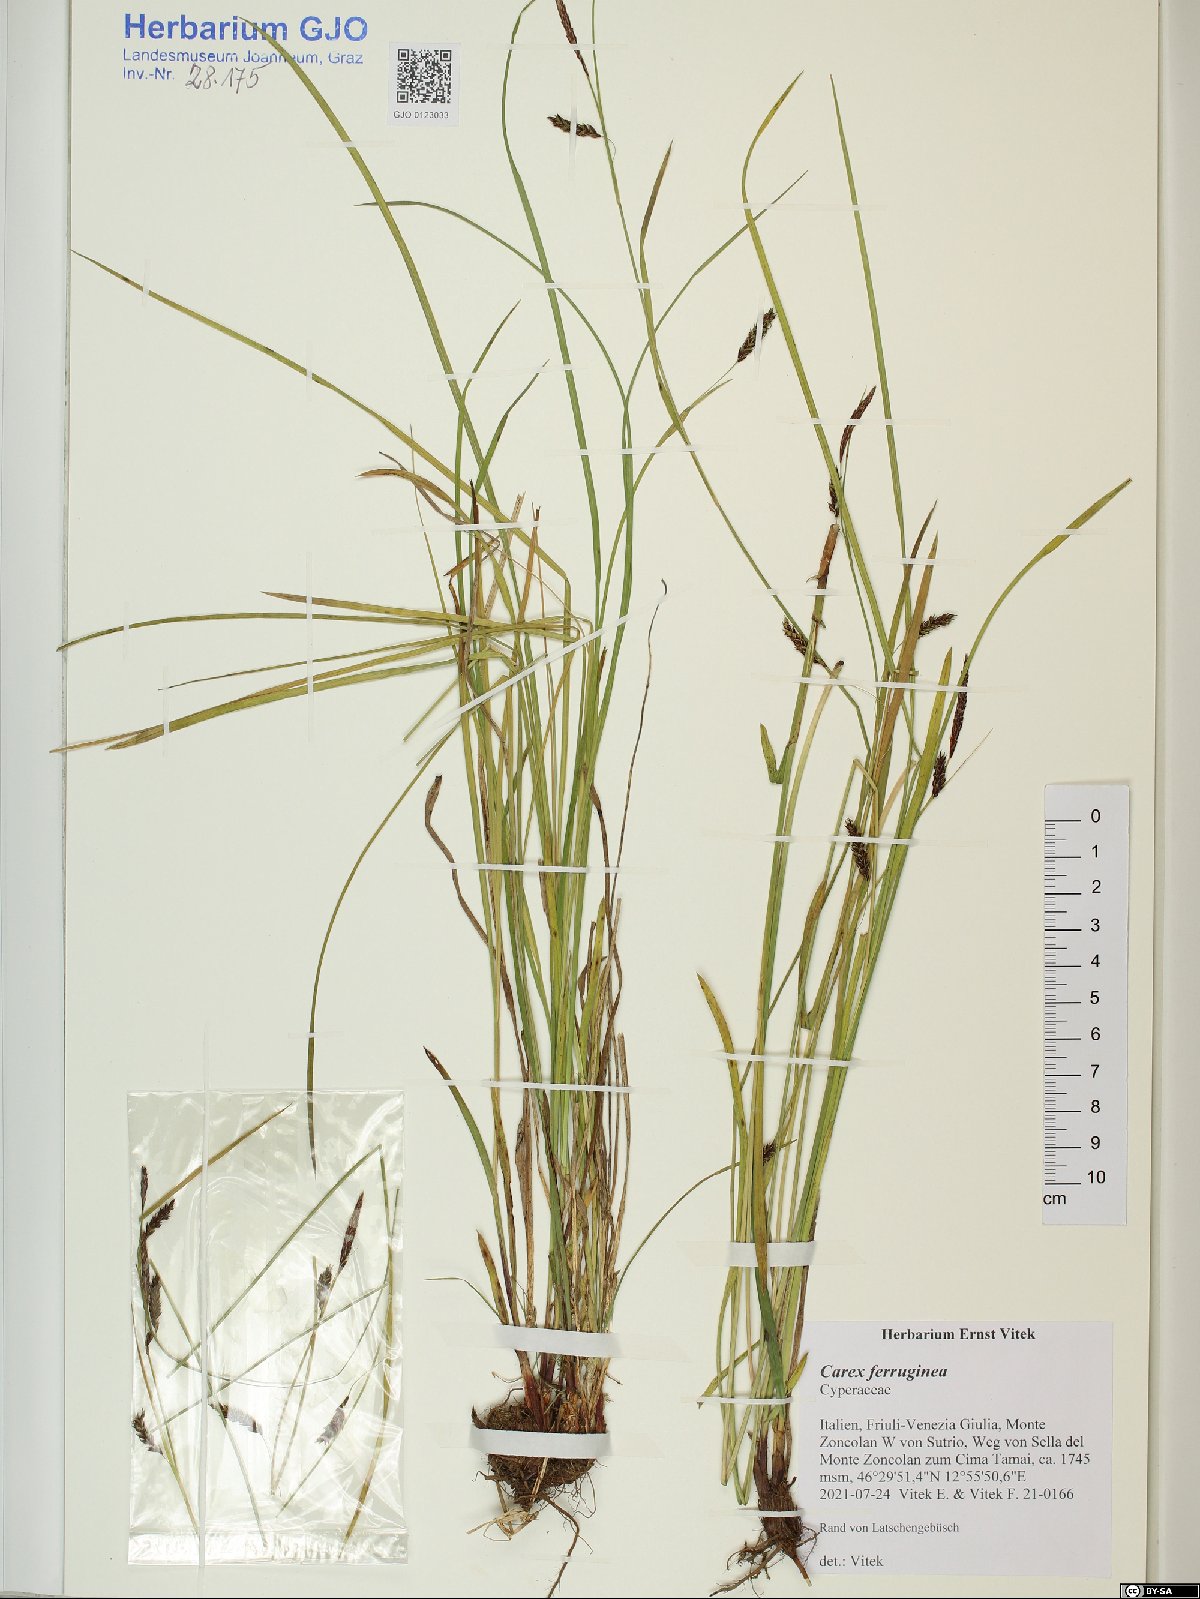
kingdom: Plantae
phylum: Tracheophyta
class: Liliopsida
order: Poales
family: Cyperaceae
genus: Carex
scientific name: Carex ferruginea
